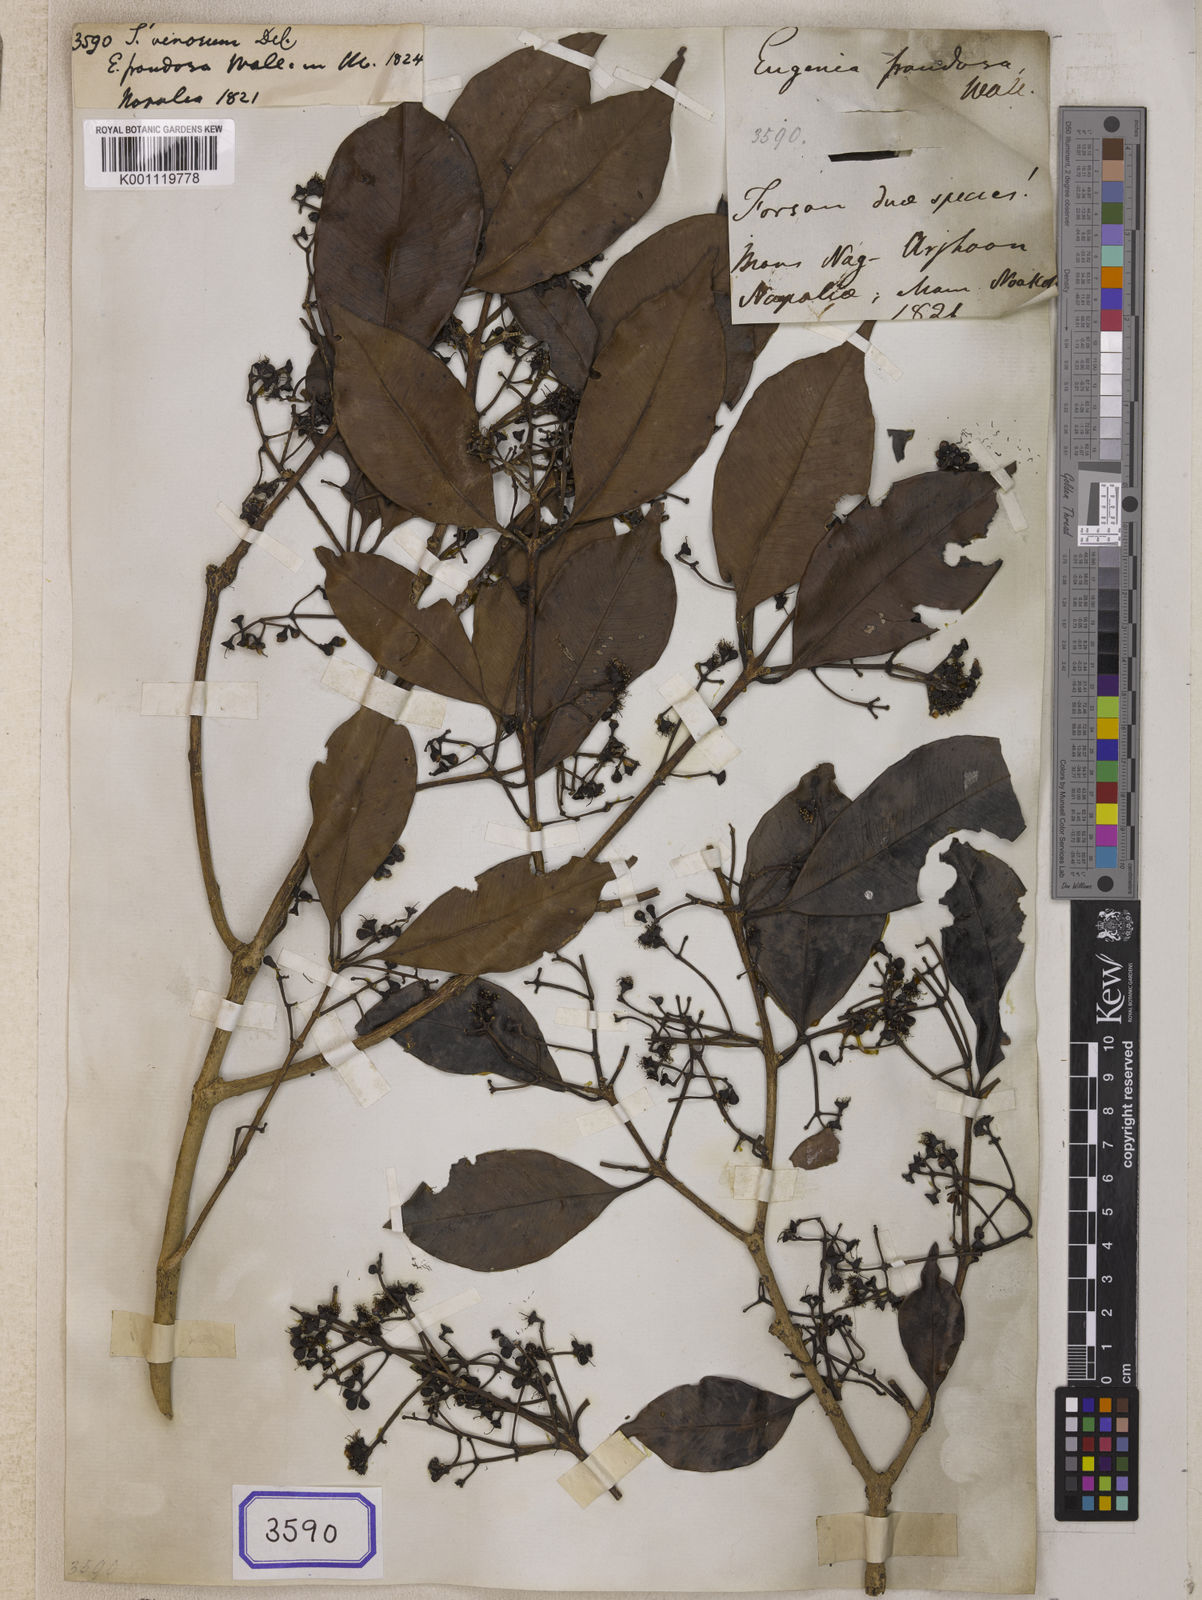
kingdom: Plantae
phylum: Tracheophyta
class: Magnoliopsida
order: Myrtales
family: Myrtaceae
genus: Syzygium
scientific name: Syzygium
